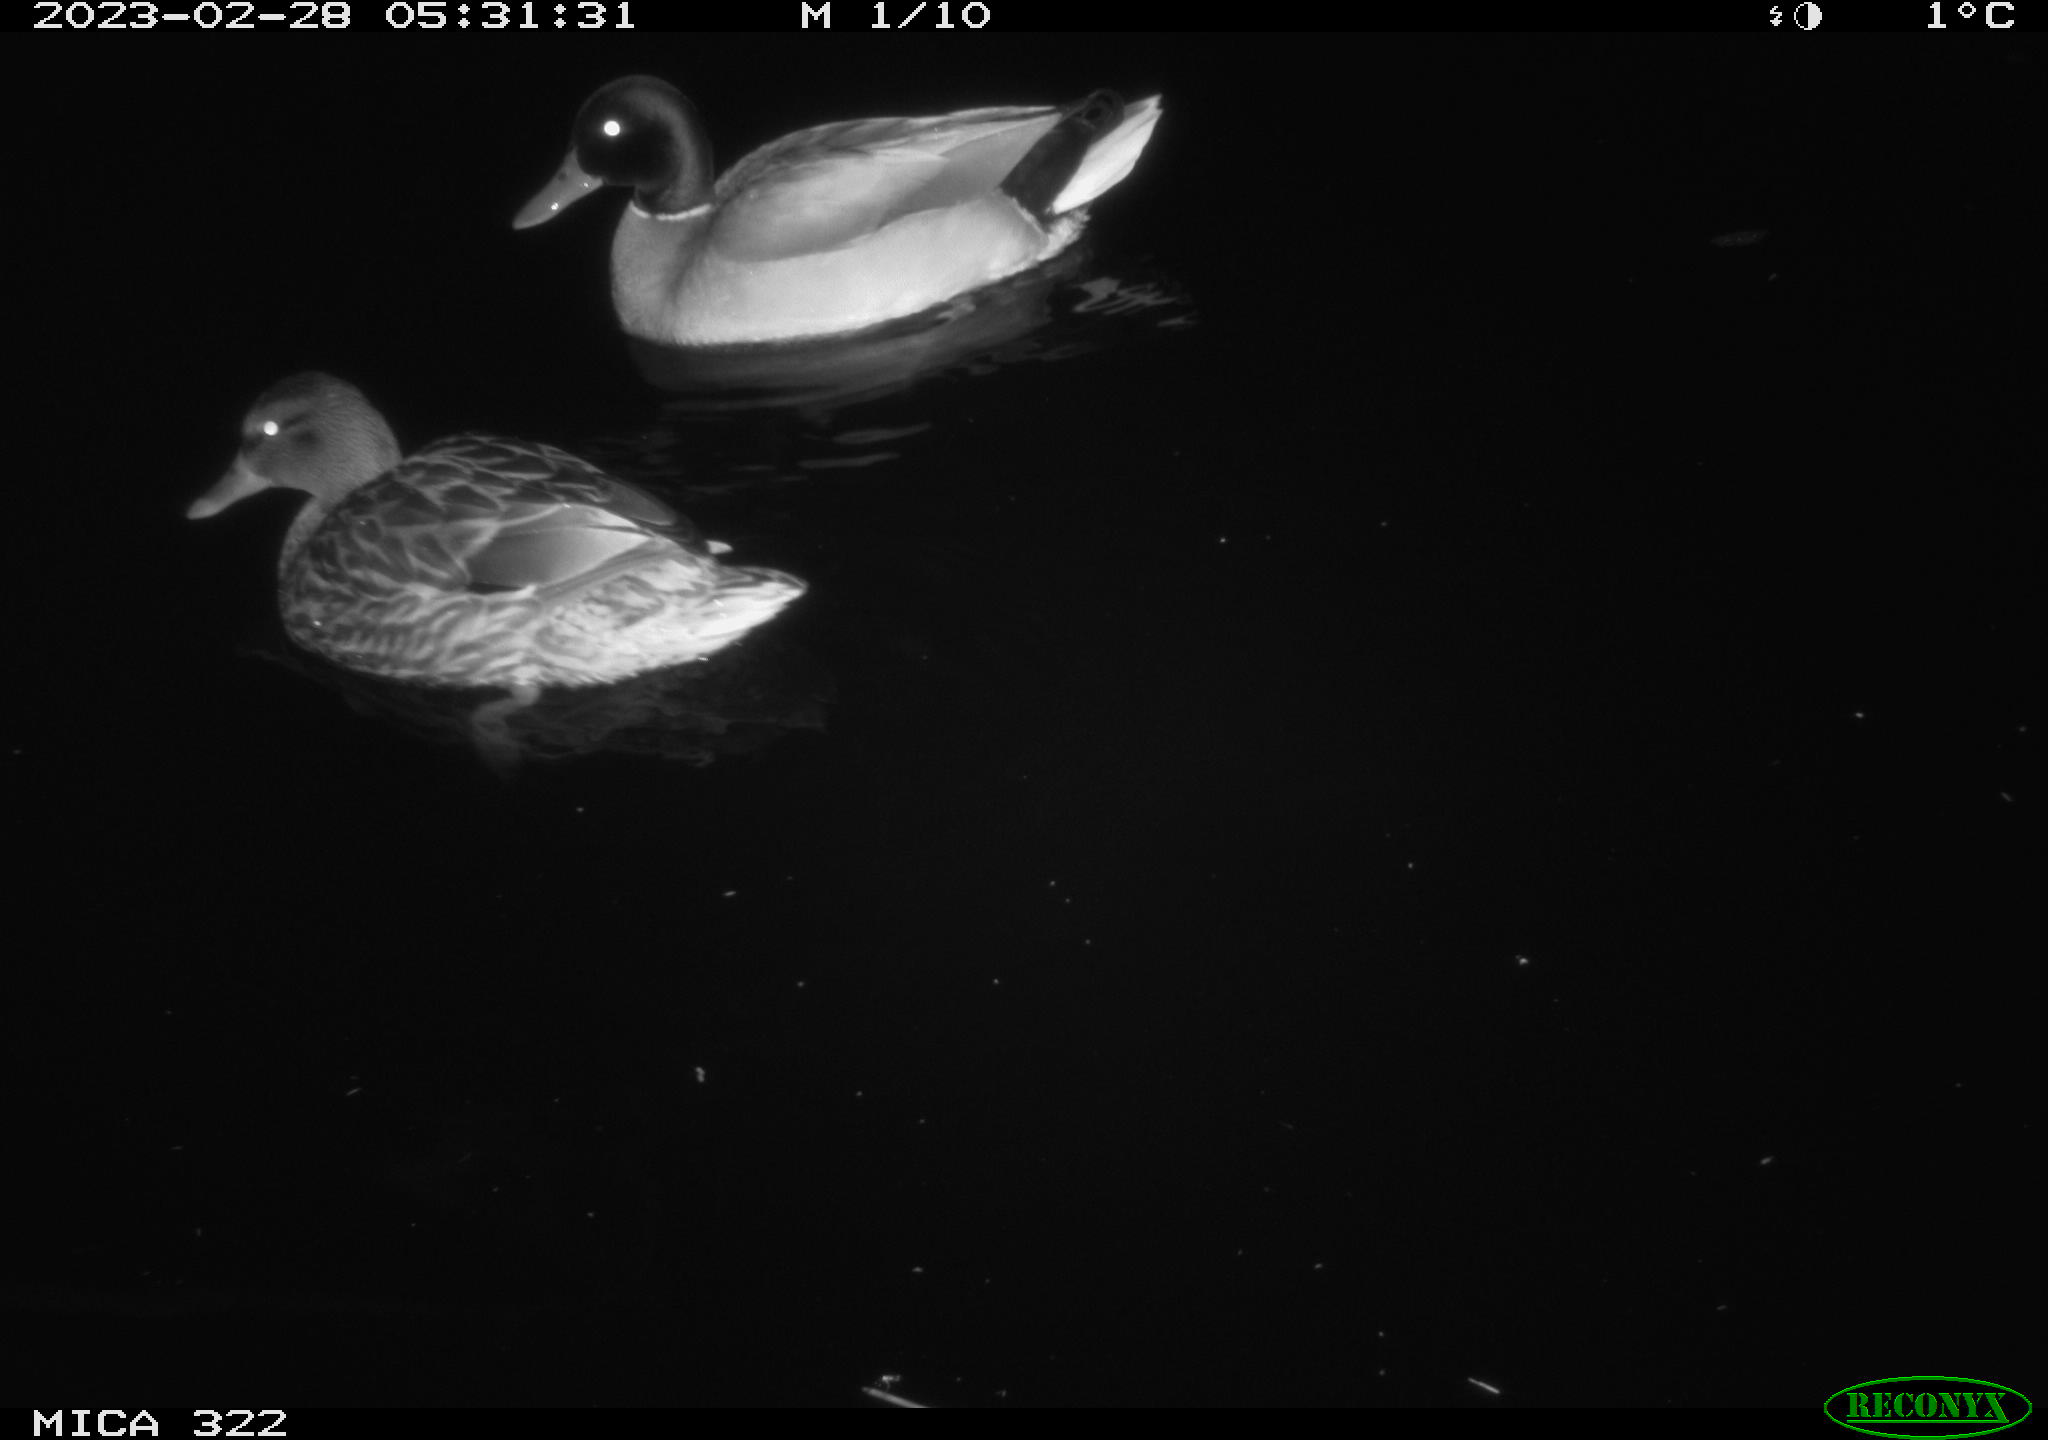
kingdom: Animalia
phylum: Chordata
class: Aves
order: Anseriformes
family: Anatidae
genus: Anas
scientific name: Anas
